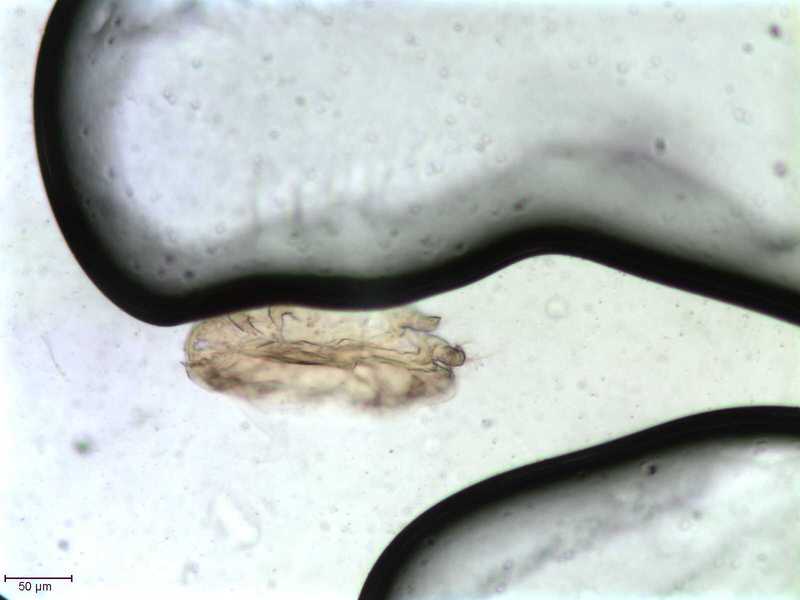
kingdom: Animalia
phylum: Hemichordata
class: Enteropneusta
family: Harrimaniidae
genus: Horstia
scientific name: Horstia
